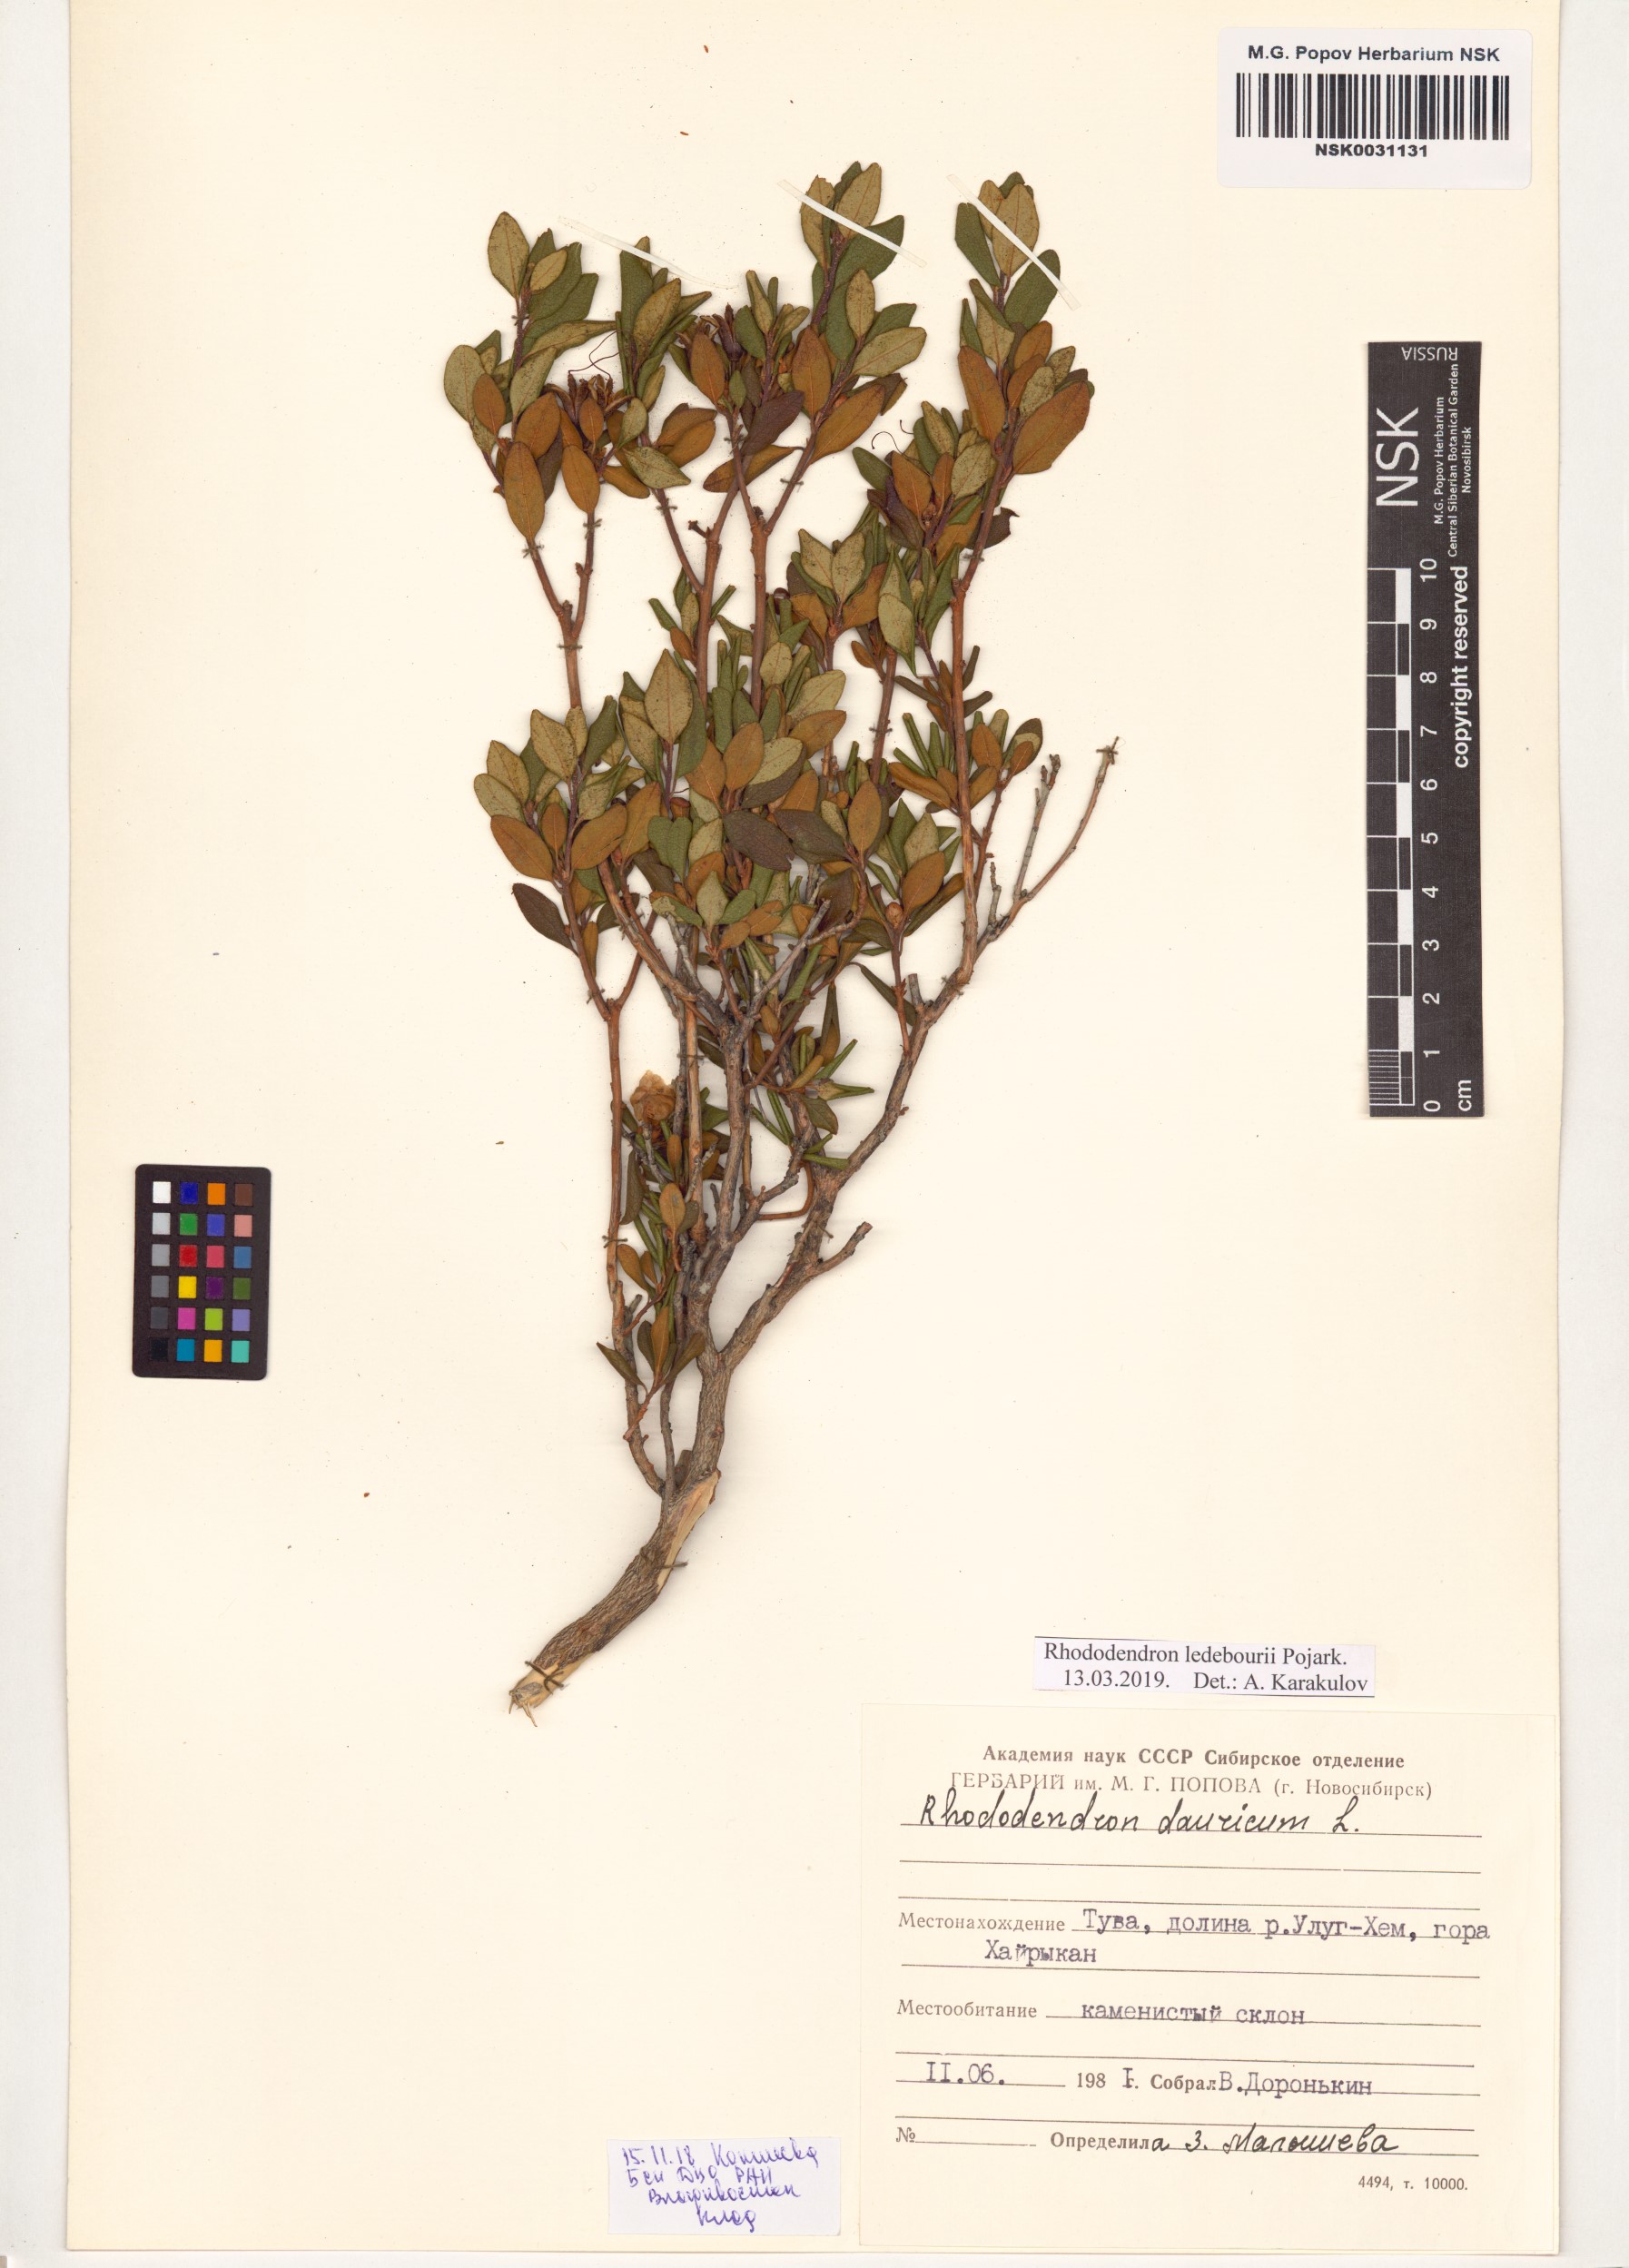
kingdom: Plantae
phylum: Tracheophyta
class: Magnoliopsida
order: Ericales
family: Ericaceae
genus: Rhododendron
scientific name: Rhododendron dauricum
